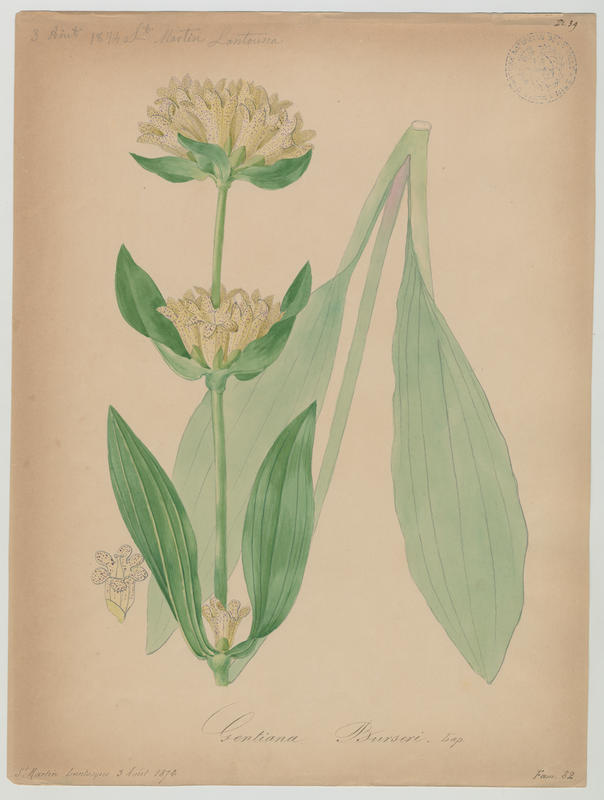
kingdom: Plantae
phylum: Tracheophyta
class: Magnoliopsida
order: Gentianales
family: Gentianaceae
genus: Gentiana
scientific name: Gentiana burseri
